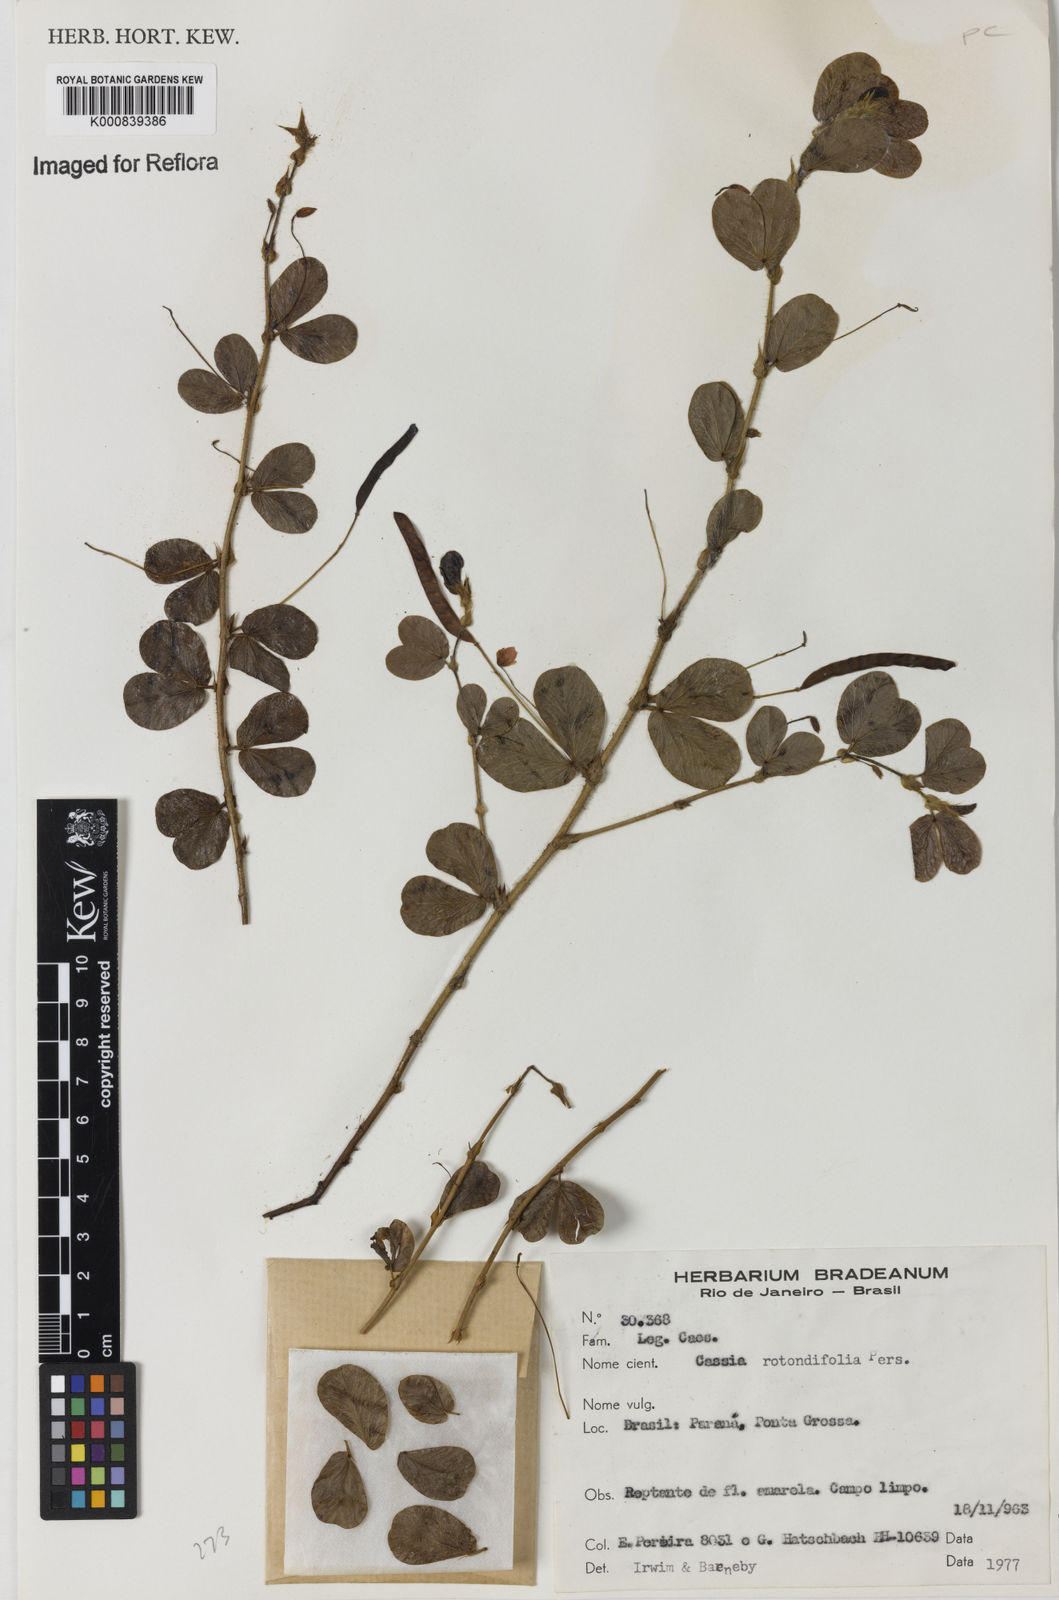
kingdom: Plantae
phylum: Tracheophyta
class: Magnoliopsida
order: Fabales
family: Fabaceae
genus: Chamaecrista
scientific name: Chamaecrista rotundifolia
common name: Round-leaf cassia
